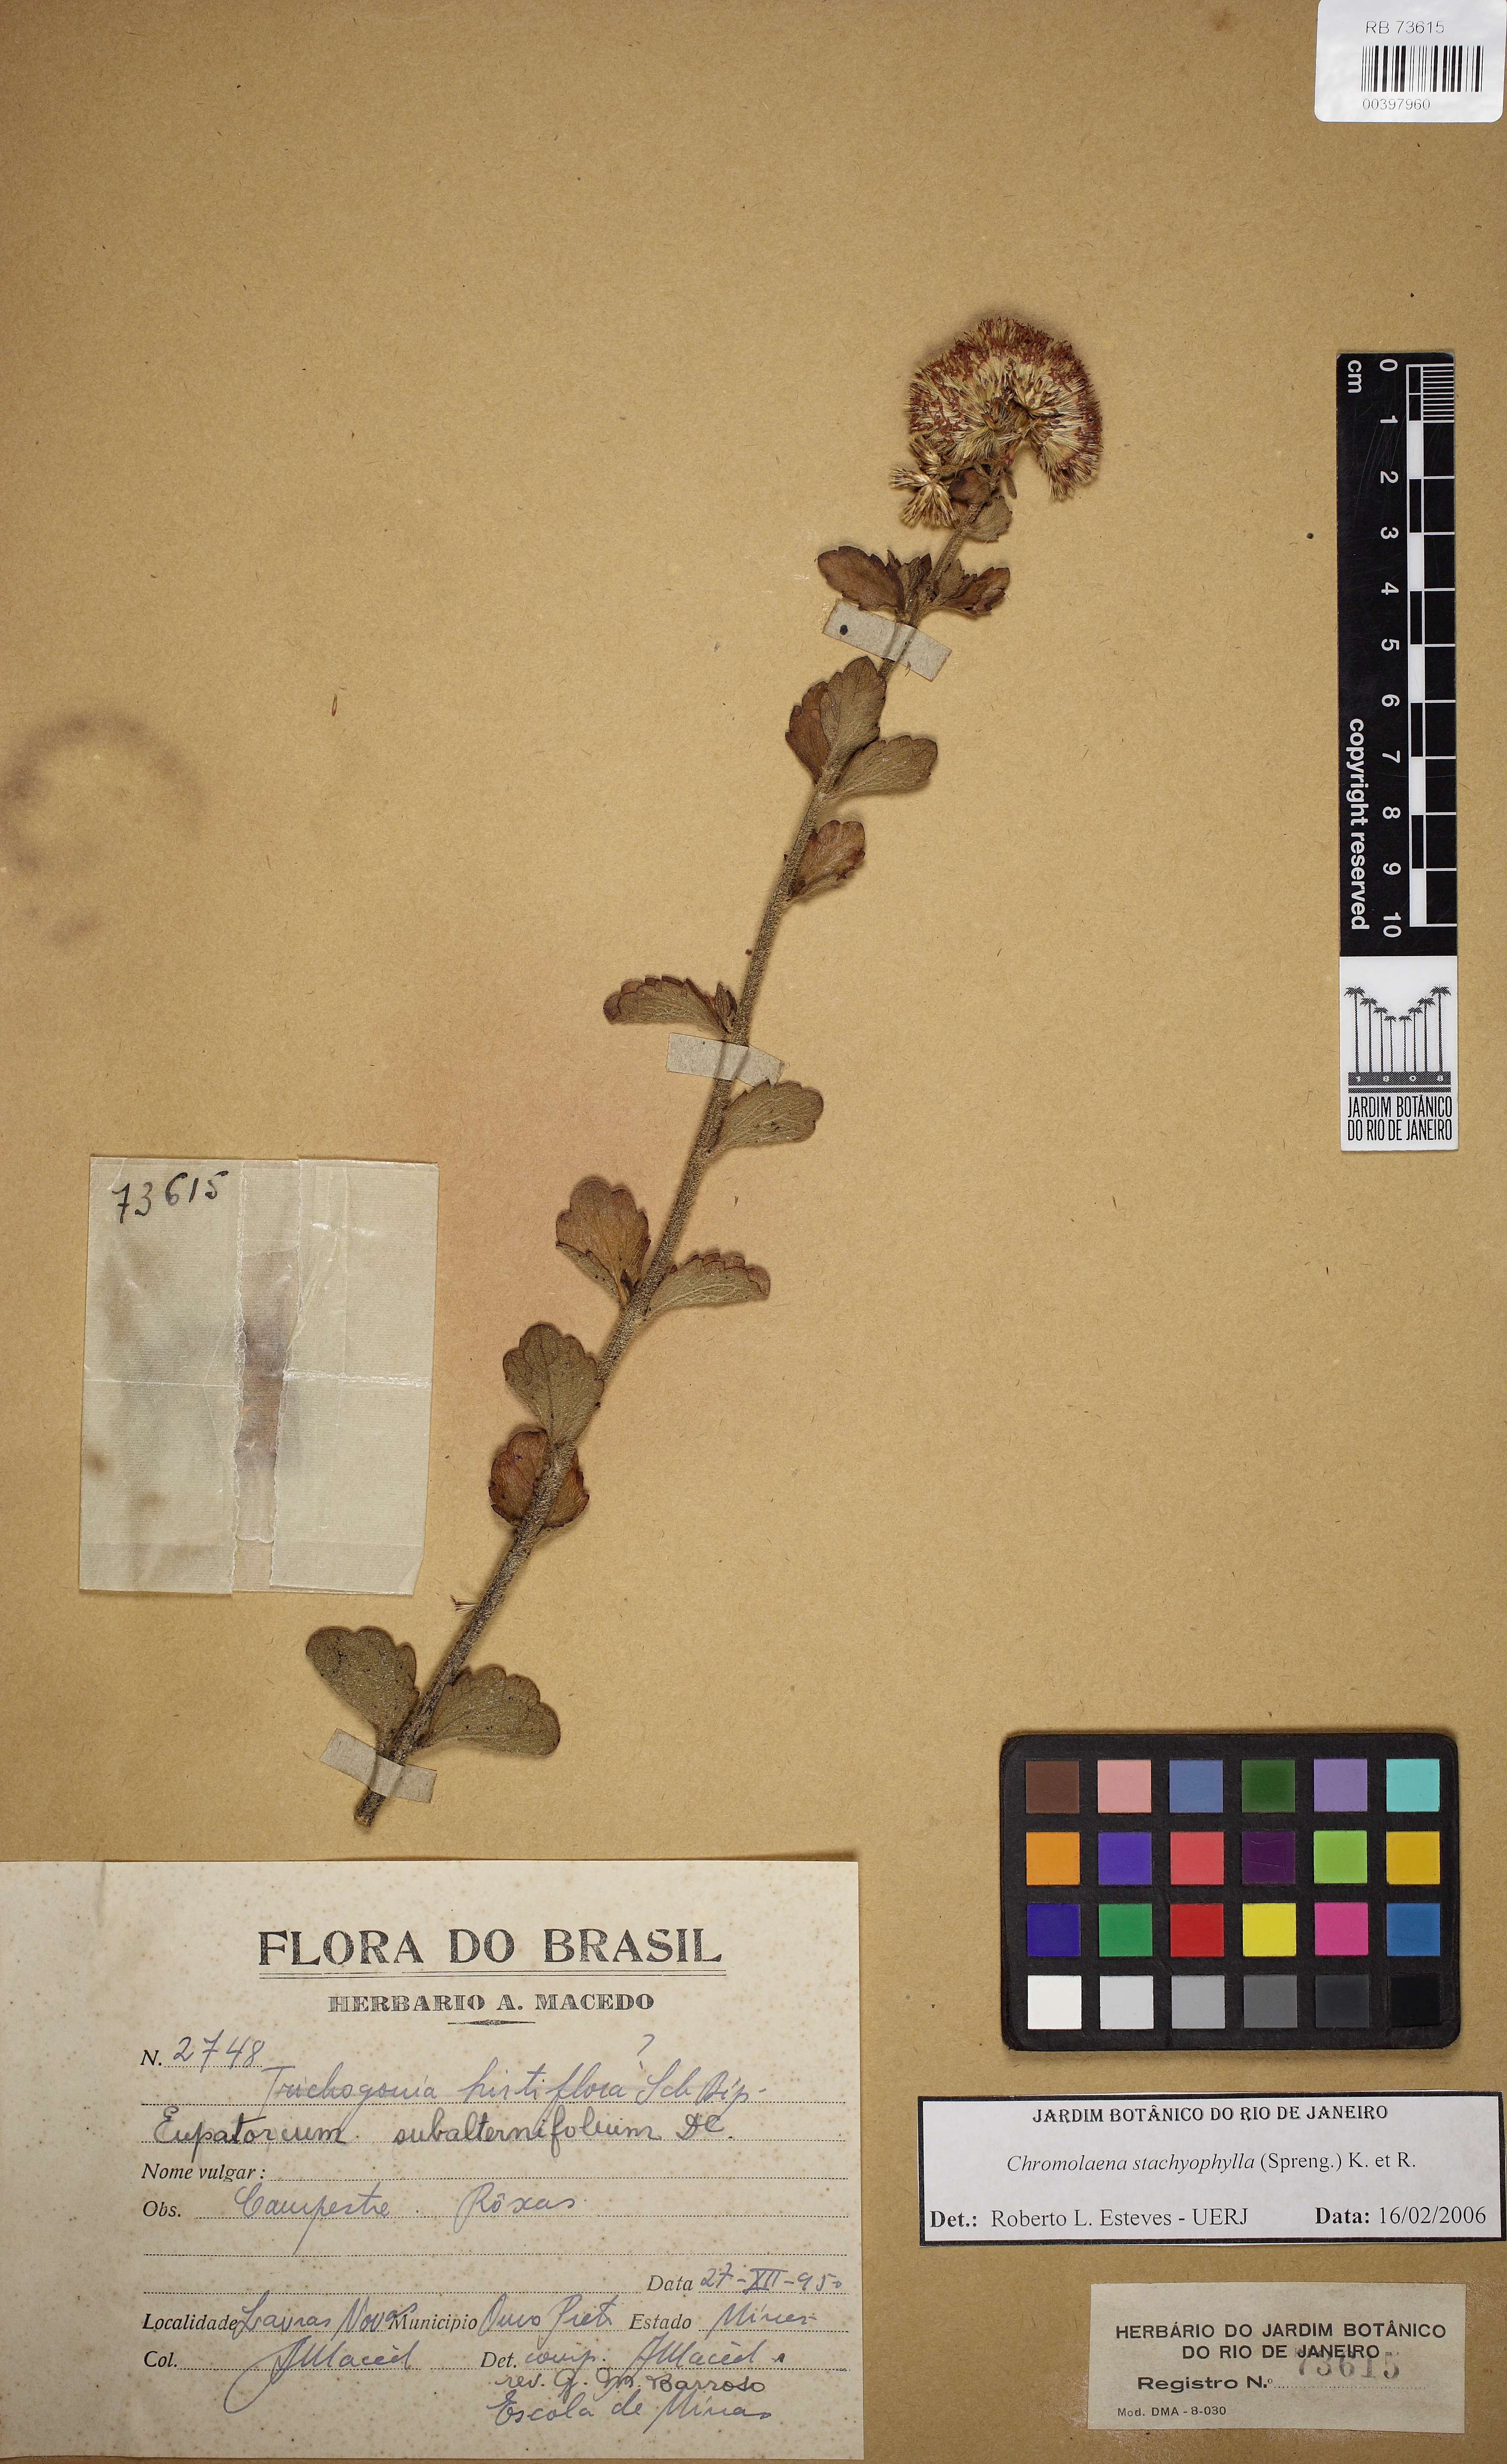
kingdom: Plantae
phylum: Tracheophyta
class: Magnoliopsida
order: Asterales
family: Asteraceae
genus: Chromolaena
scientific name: Chromolaena stachyophylla
